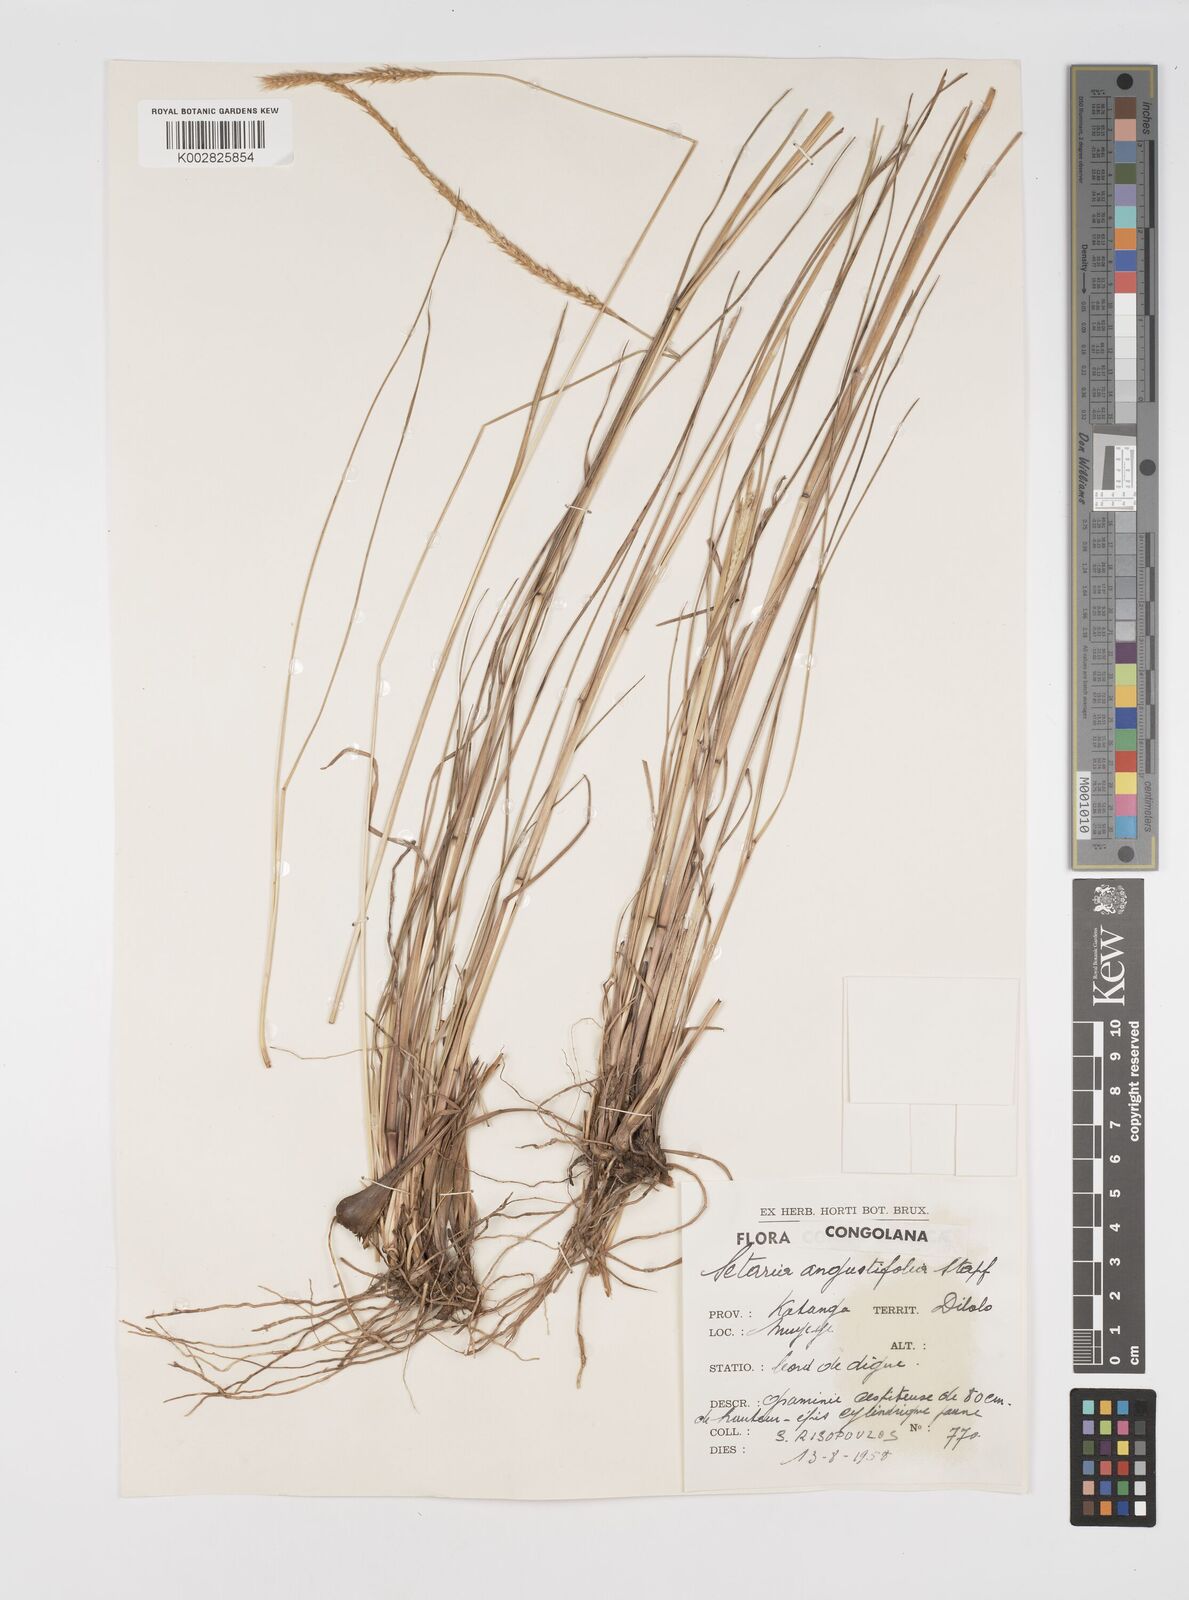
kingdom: Plantae
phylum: Tracheophyta
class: Liliopsida
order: Poales
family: Poaceae
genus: Setaria
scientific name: Setaria sphacelata
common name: African bristlegrass
